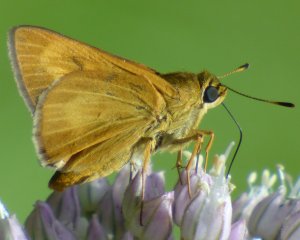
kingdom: Animalia
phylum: Arthropoda
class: Insecta
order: Lepidoptera
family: Hesperiidae
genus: Problema
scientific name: Problema byssus
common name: Byssus Skipper
